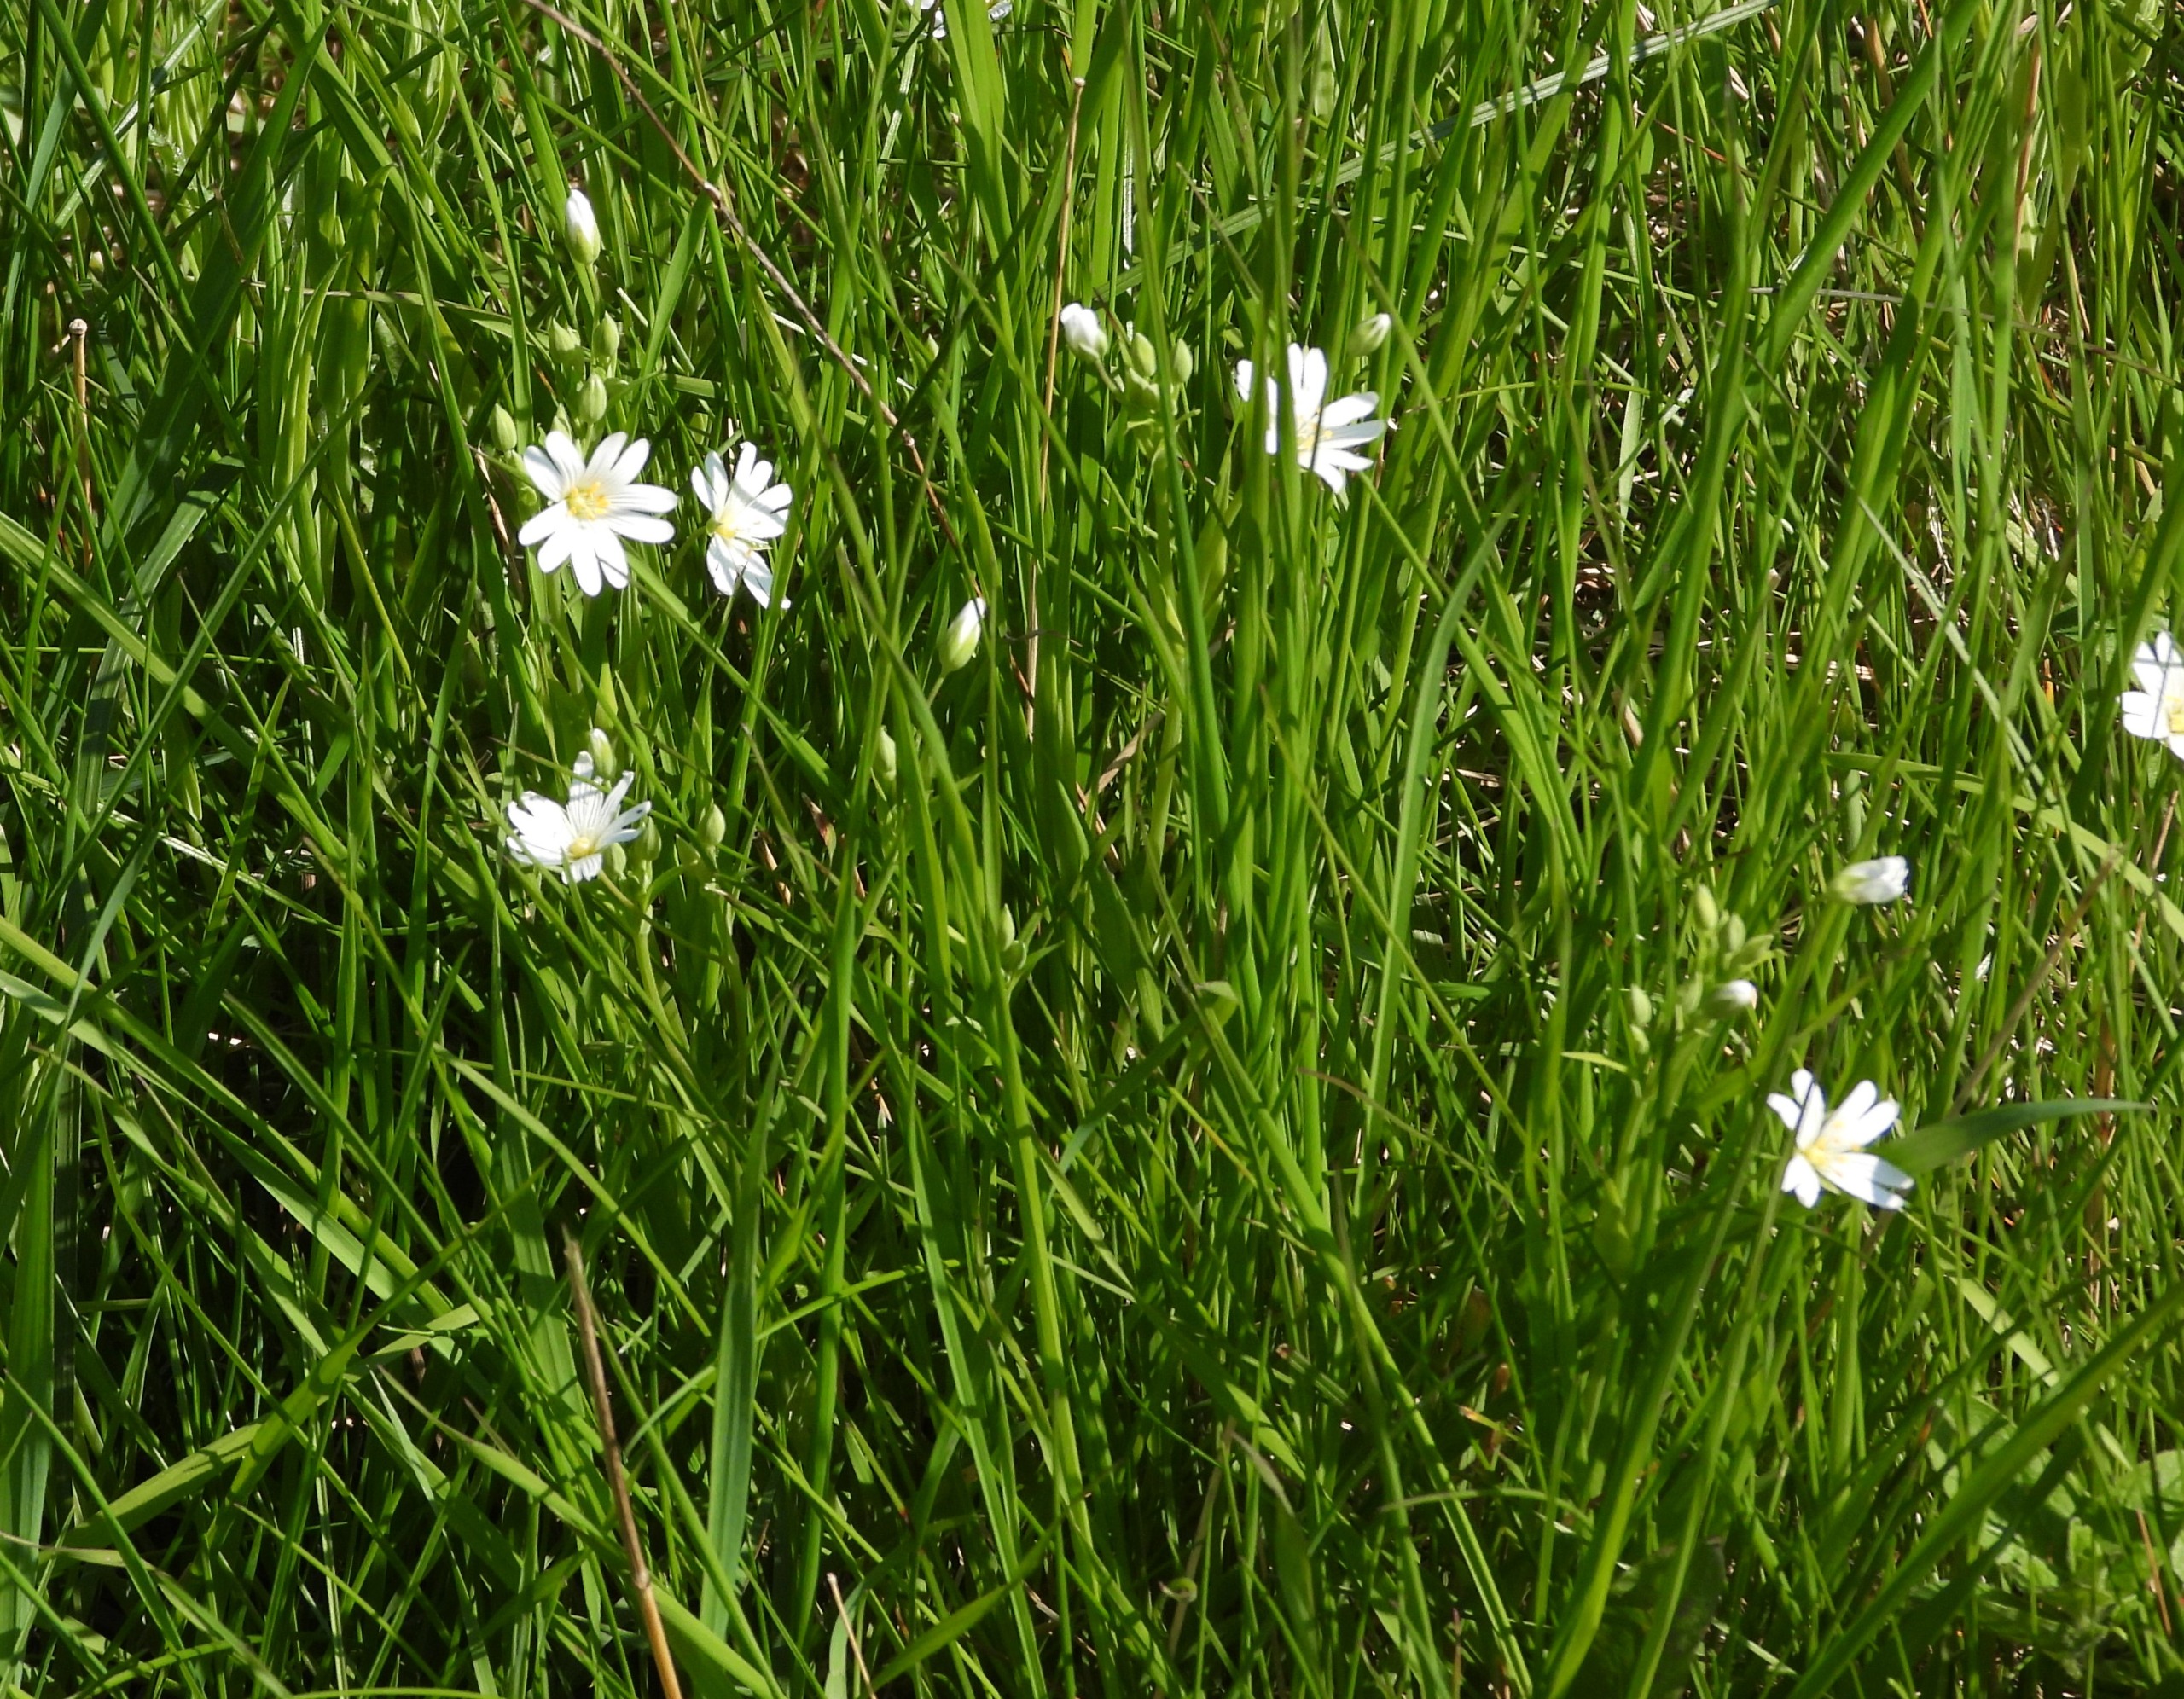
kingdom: Plantae
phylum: Tracheophyta
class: Magnoliopsida
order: Caryophyllales
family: Caryophyllaceae
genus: Rabelera
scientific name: Rabelera holostea
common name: Stor fladstjerne
